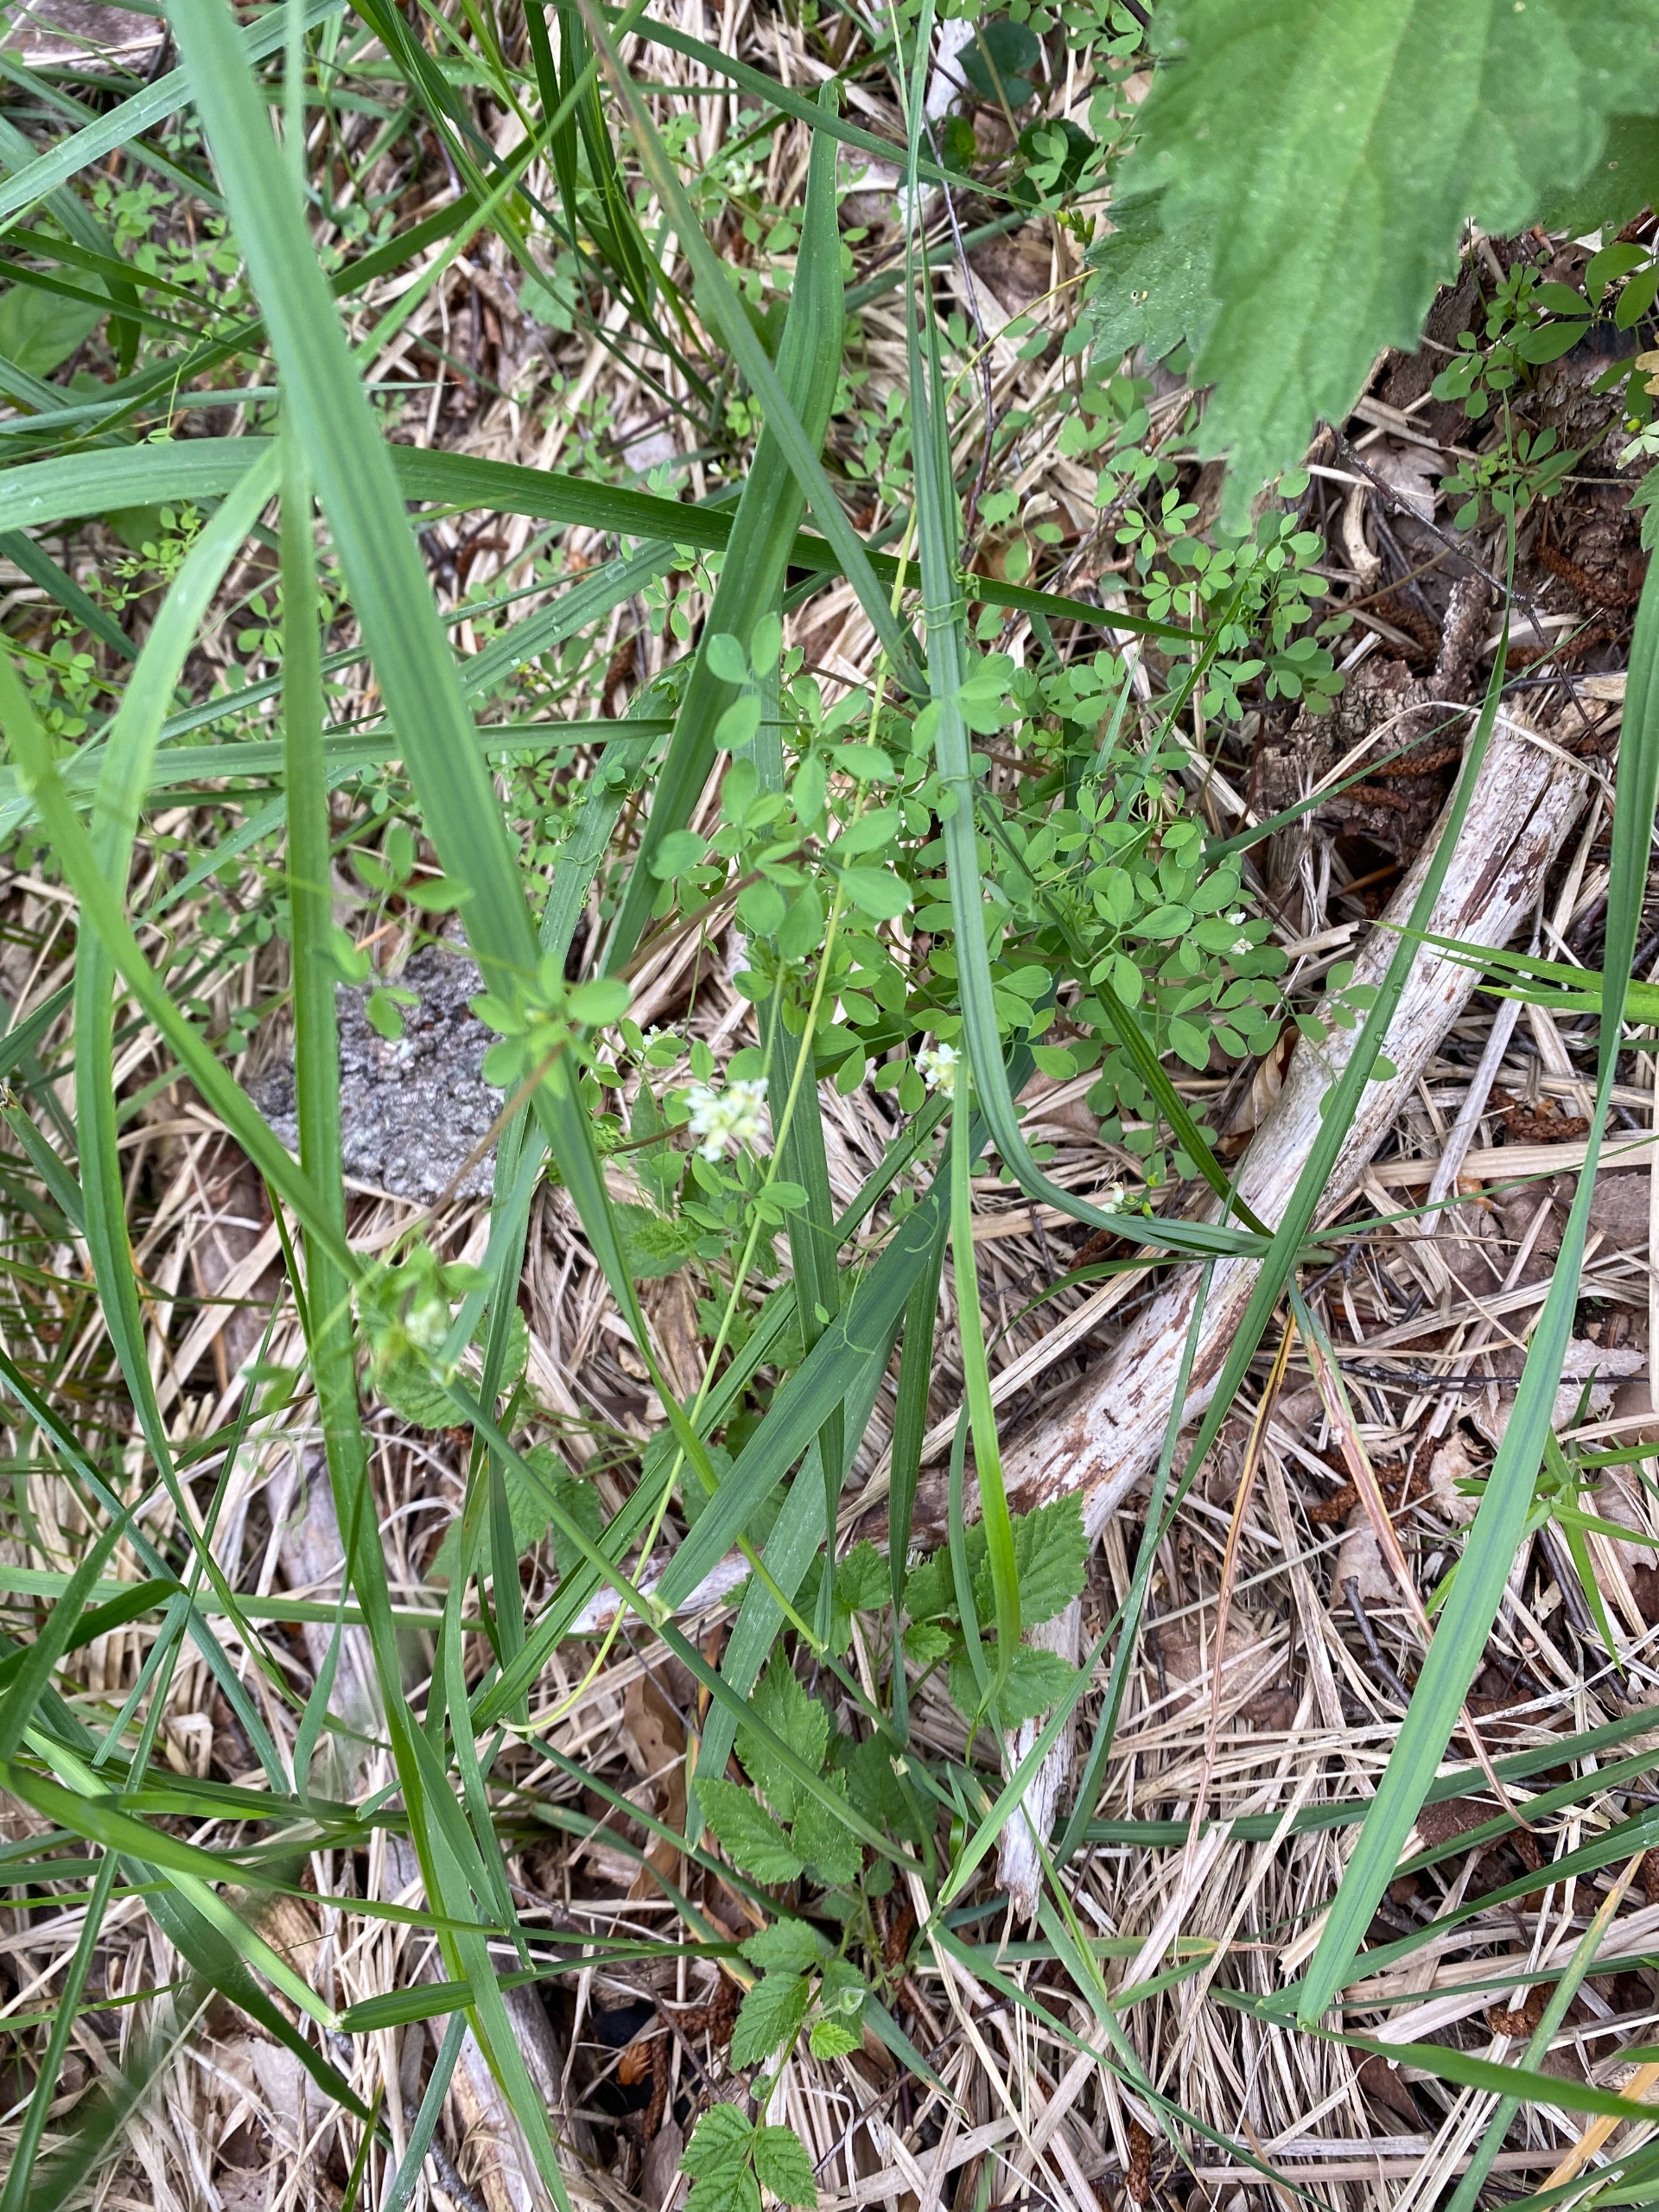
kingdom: Plantae
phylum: Tracheophyta
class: Magnoliopsida
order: Ranunculales
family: Papaveraceae
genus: Ceratocapnos
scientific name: Ceratocapnos claviculata
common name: Klatrende lærkespore
